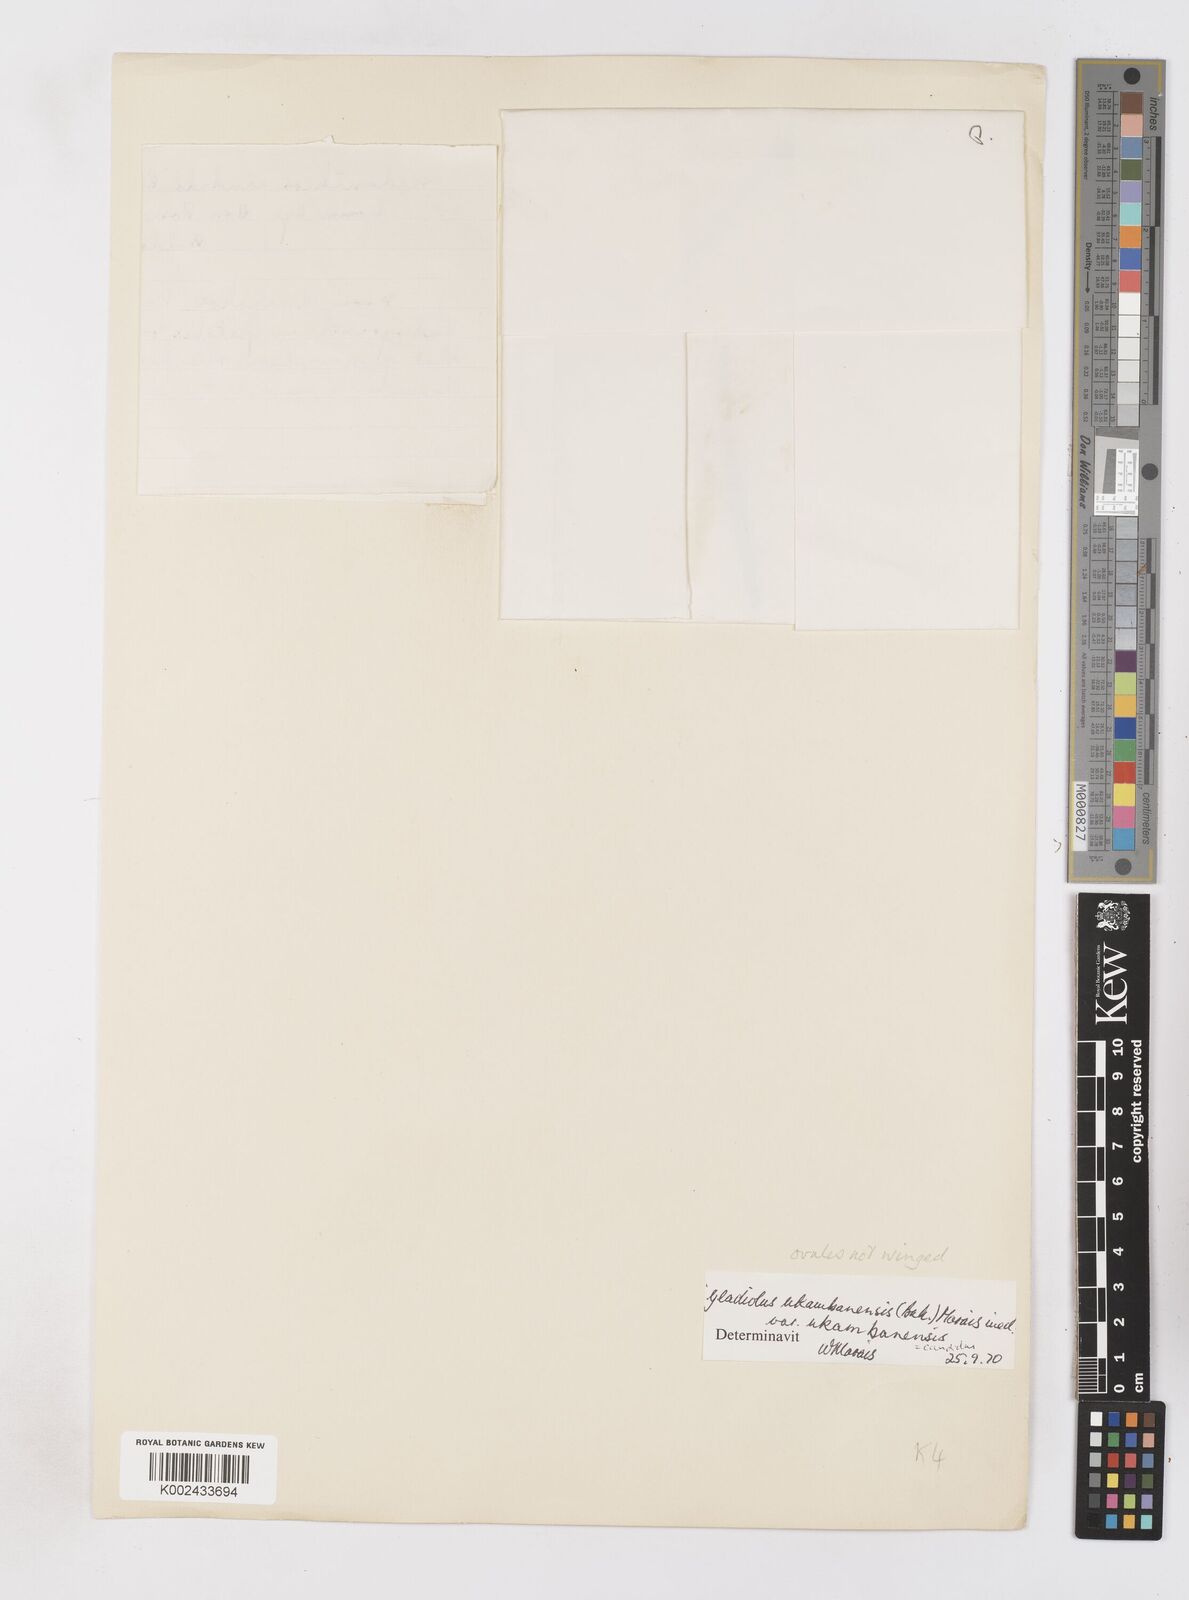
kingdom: Plantae
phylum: Tracheophyta
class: Liliopsida
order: Asparagales
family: Iridaceae
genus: Gladiolus
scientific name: Gladiolus candidus
